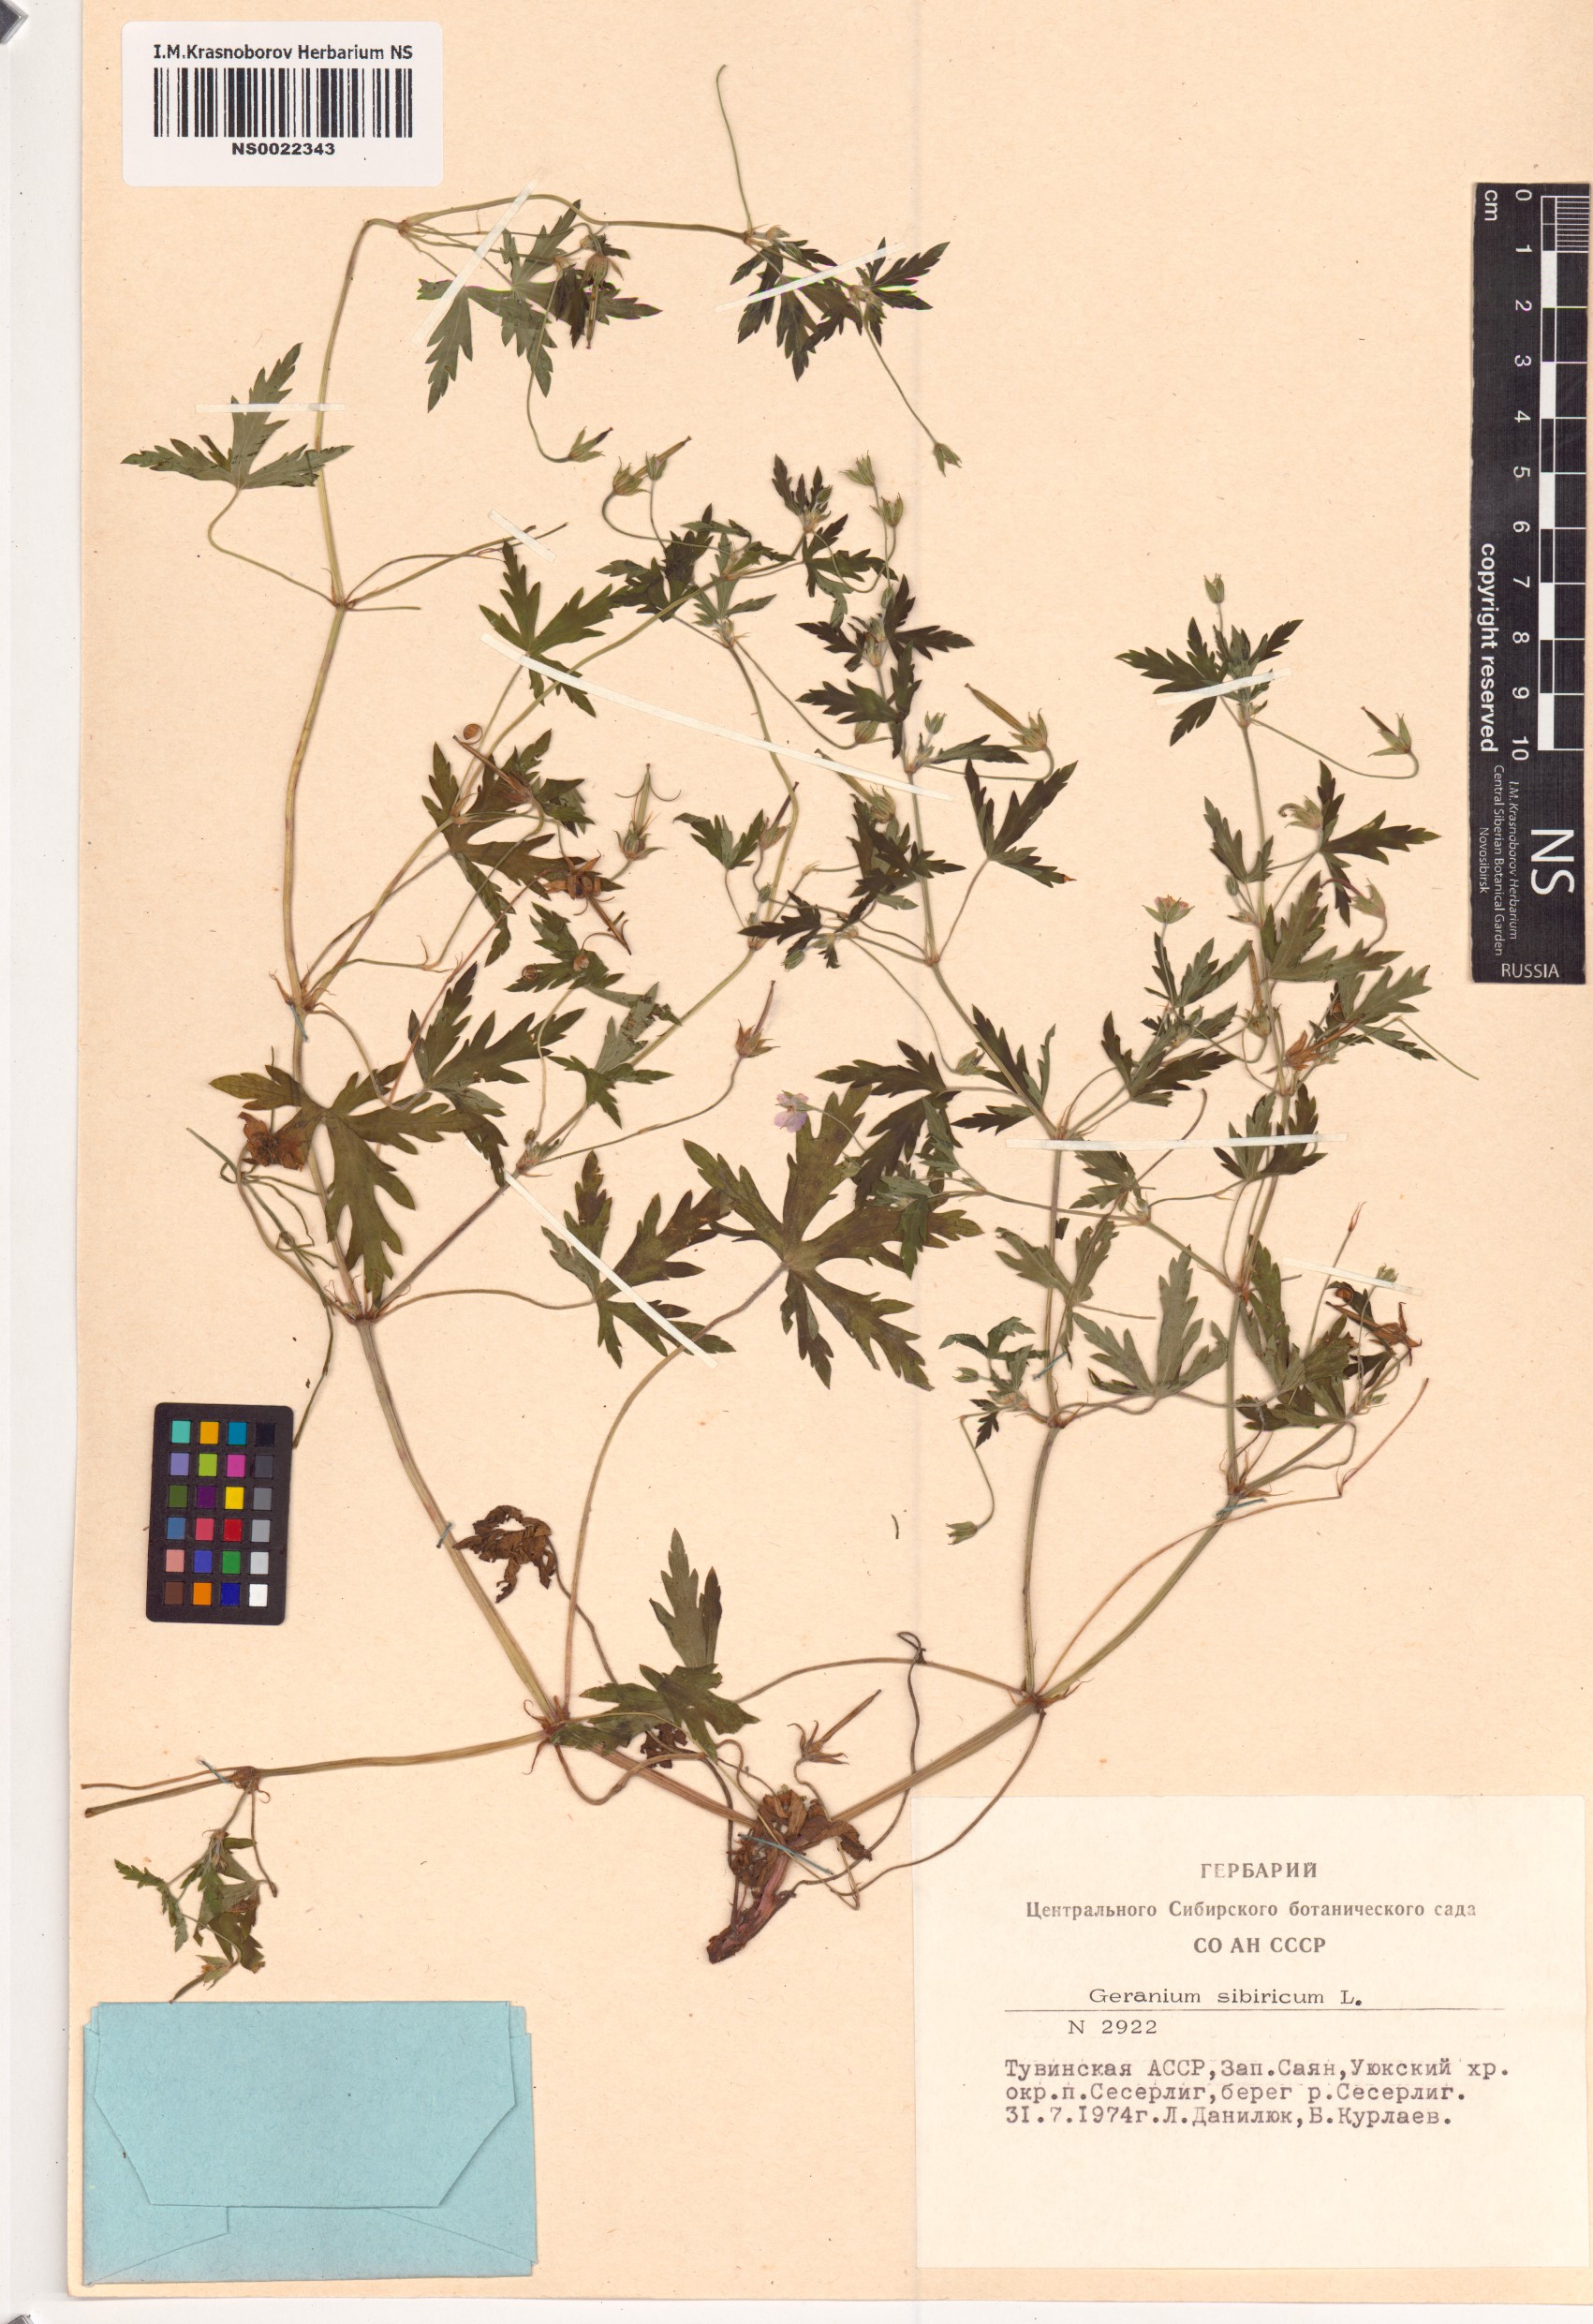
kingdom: Plantae
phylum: Tracheophyta
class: Magnoliopsida
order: Geraniales
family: Geraniaceae
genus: Geranium
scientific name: Geranium sibiricum
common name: Siberian crane's-bill
